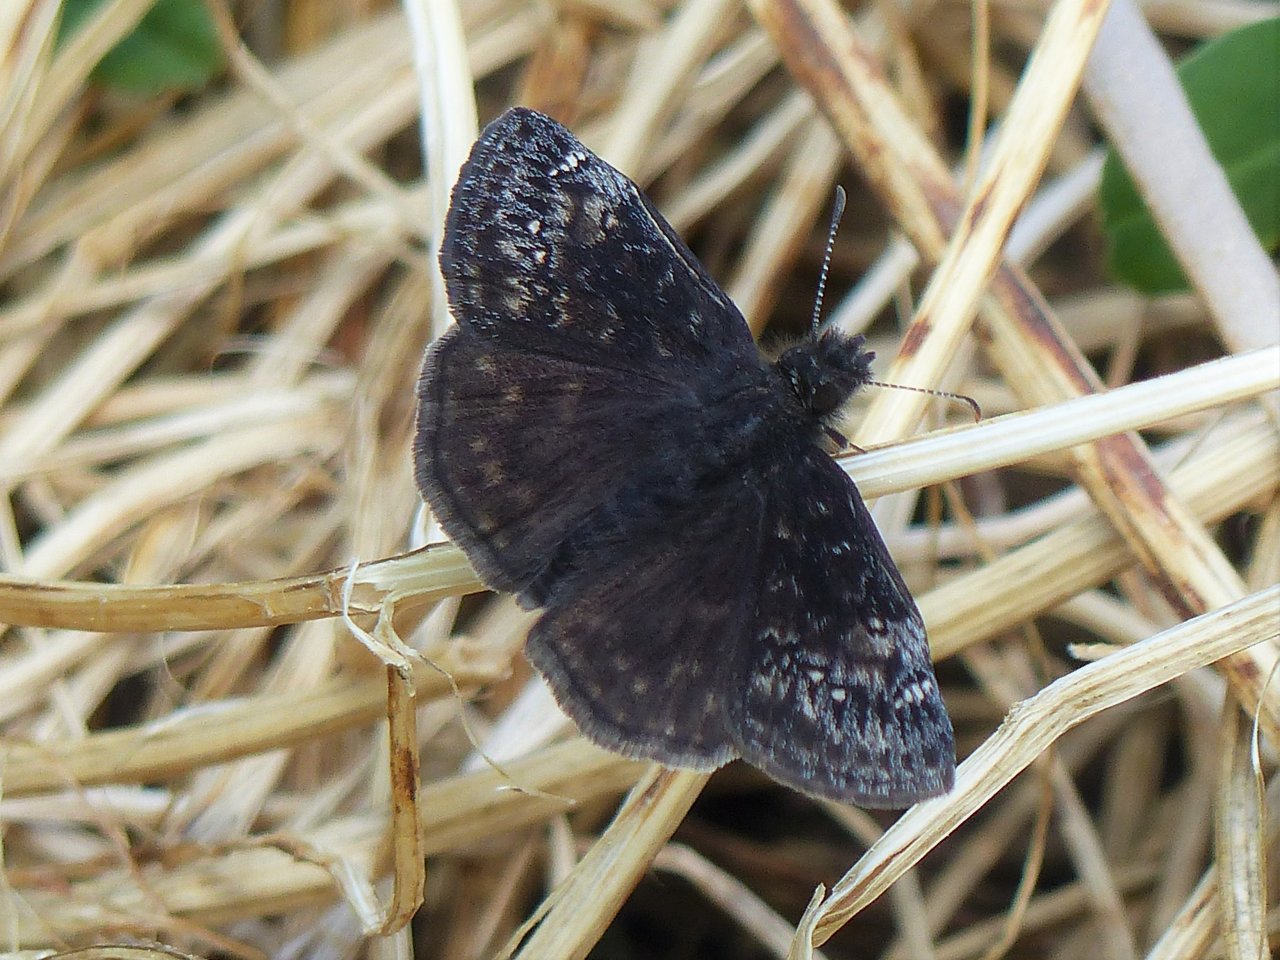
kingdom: Animalia
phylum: Arthropoda
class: Insecta
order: Lepidoptera
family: Hesperiidae
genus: Gesta
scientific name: Gesta
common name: Wild Indigo Duskywing
